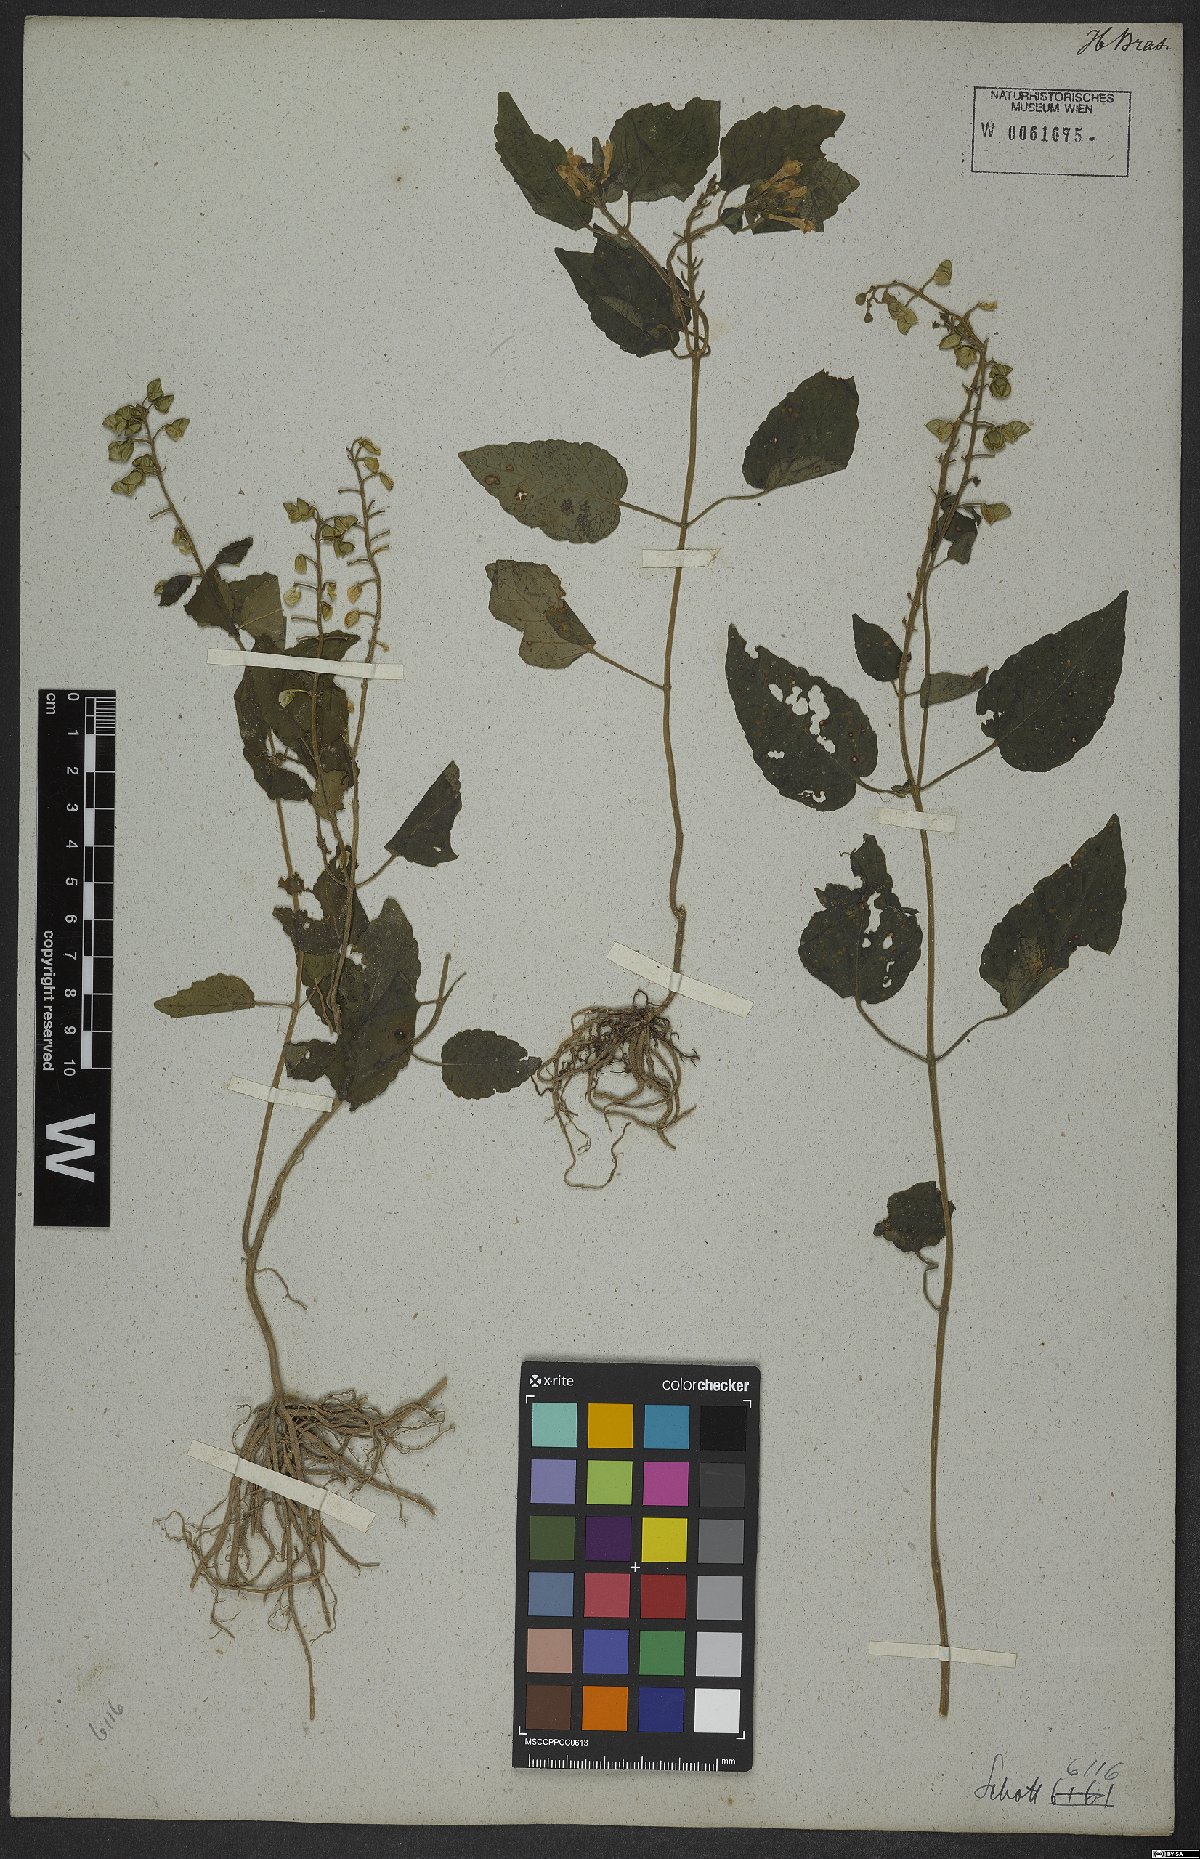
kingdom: Plantae
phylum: Tracheophyta
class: Magnoliopsida
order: Lamiales
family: Lamiaceae
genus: Scutellaria
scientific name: Scutellaria uliginosa
